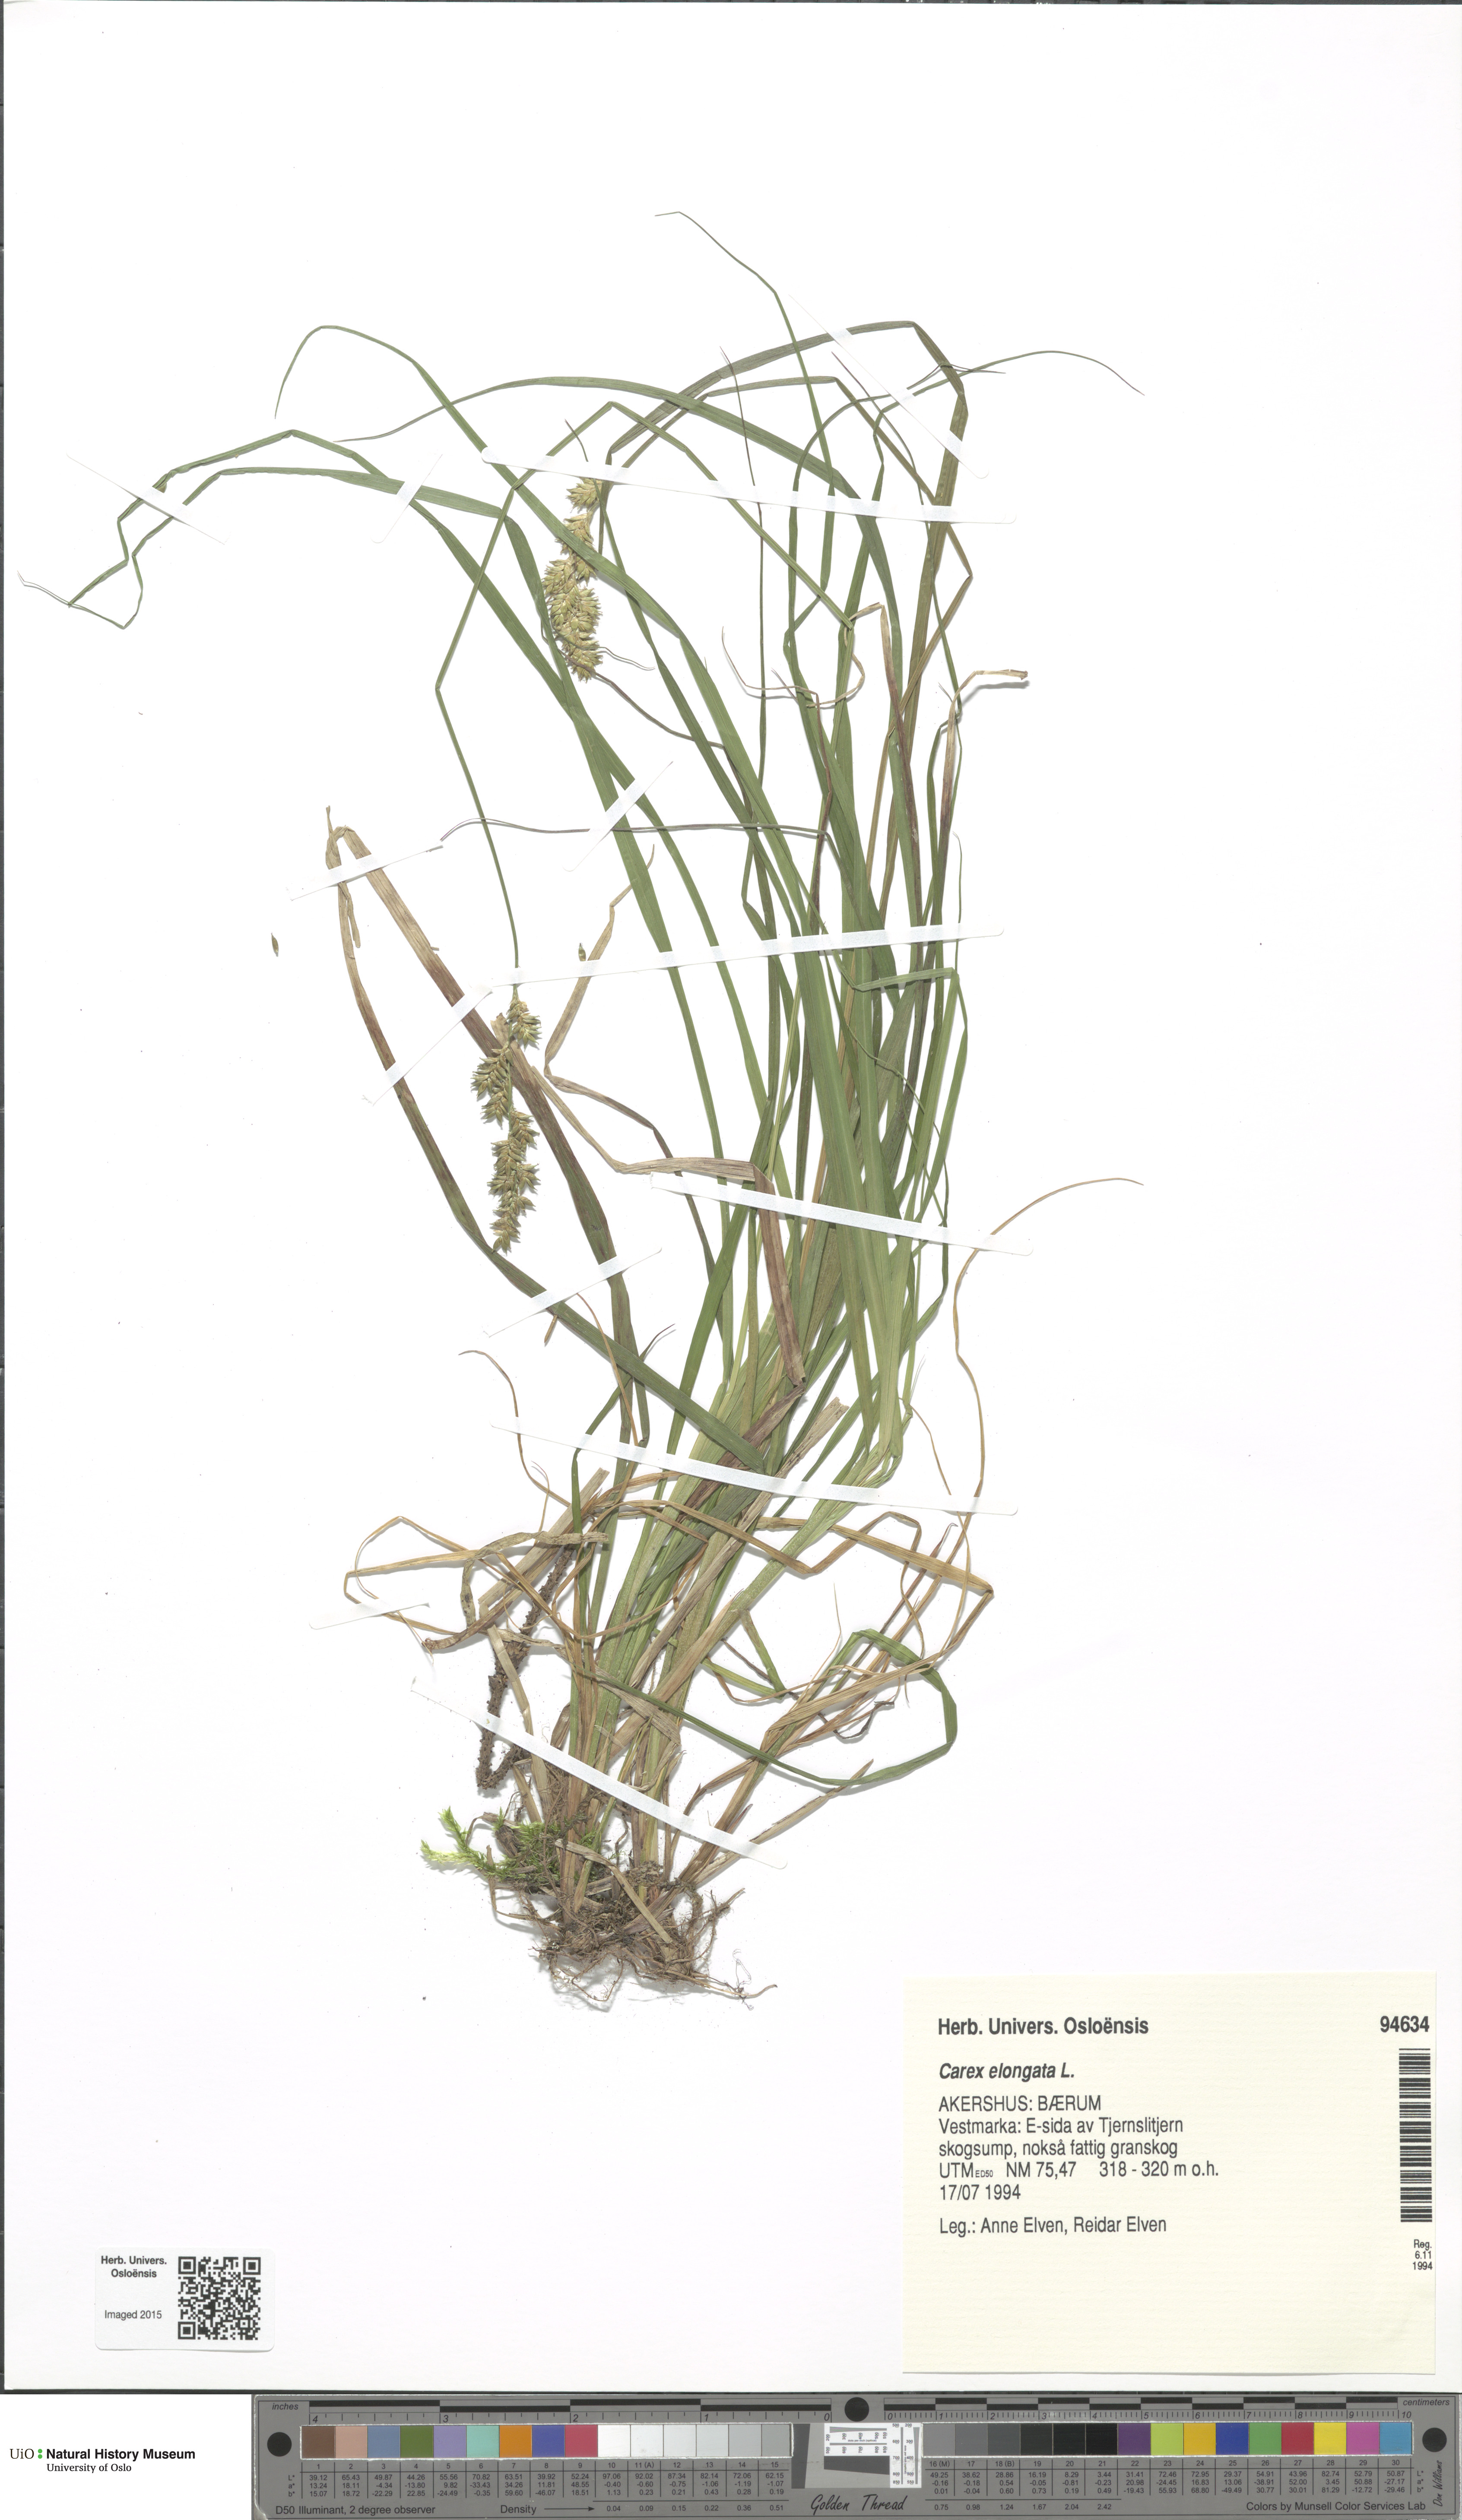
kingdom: Plantae
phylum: Tracheophyta
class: Liliopsida
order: Poales
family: Cyperaceae
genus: Carex
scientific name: Carex elongata
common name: Elongated sedge
